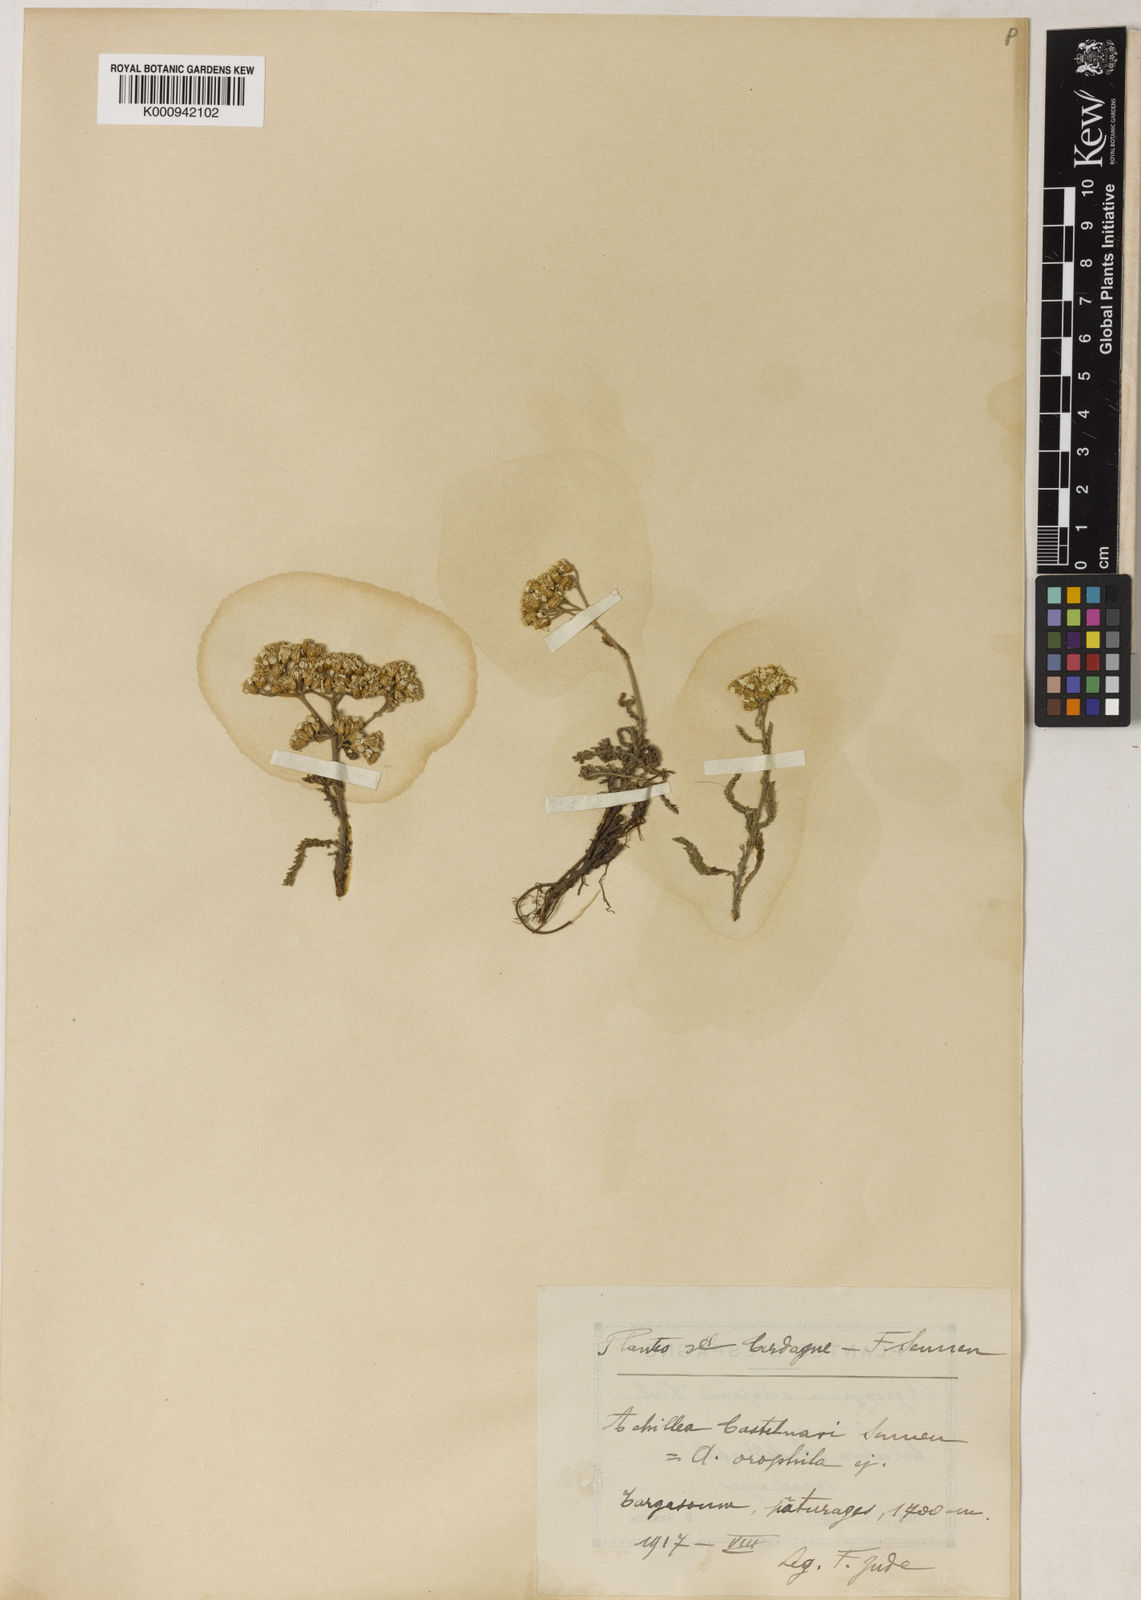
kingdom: Plantae
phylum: Tracheophyta
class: Magnoliopsida
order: Asterales
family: Asteraceae
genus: Achillea
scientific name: Achillea
